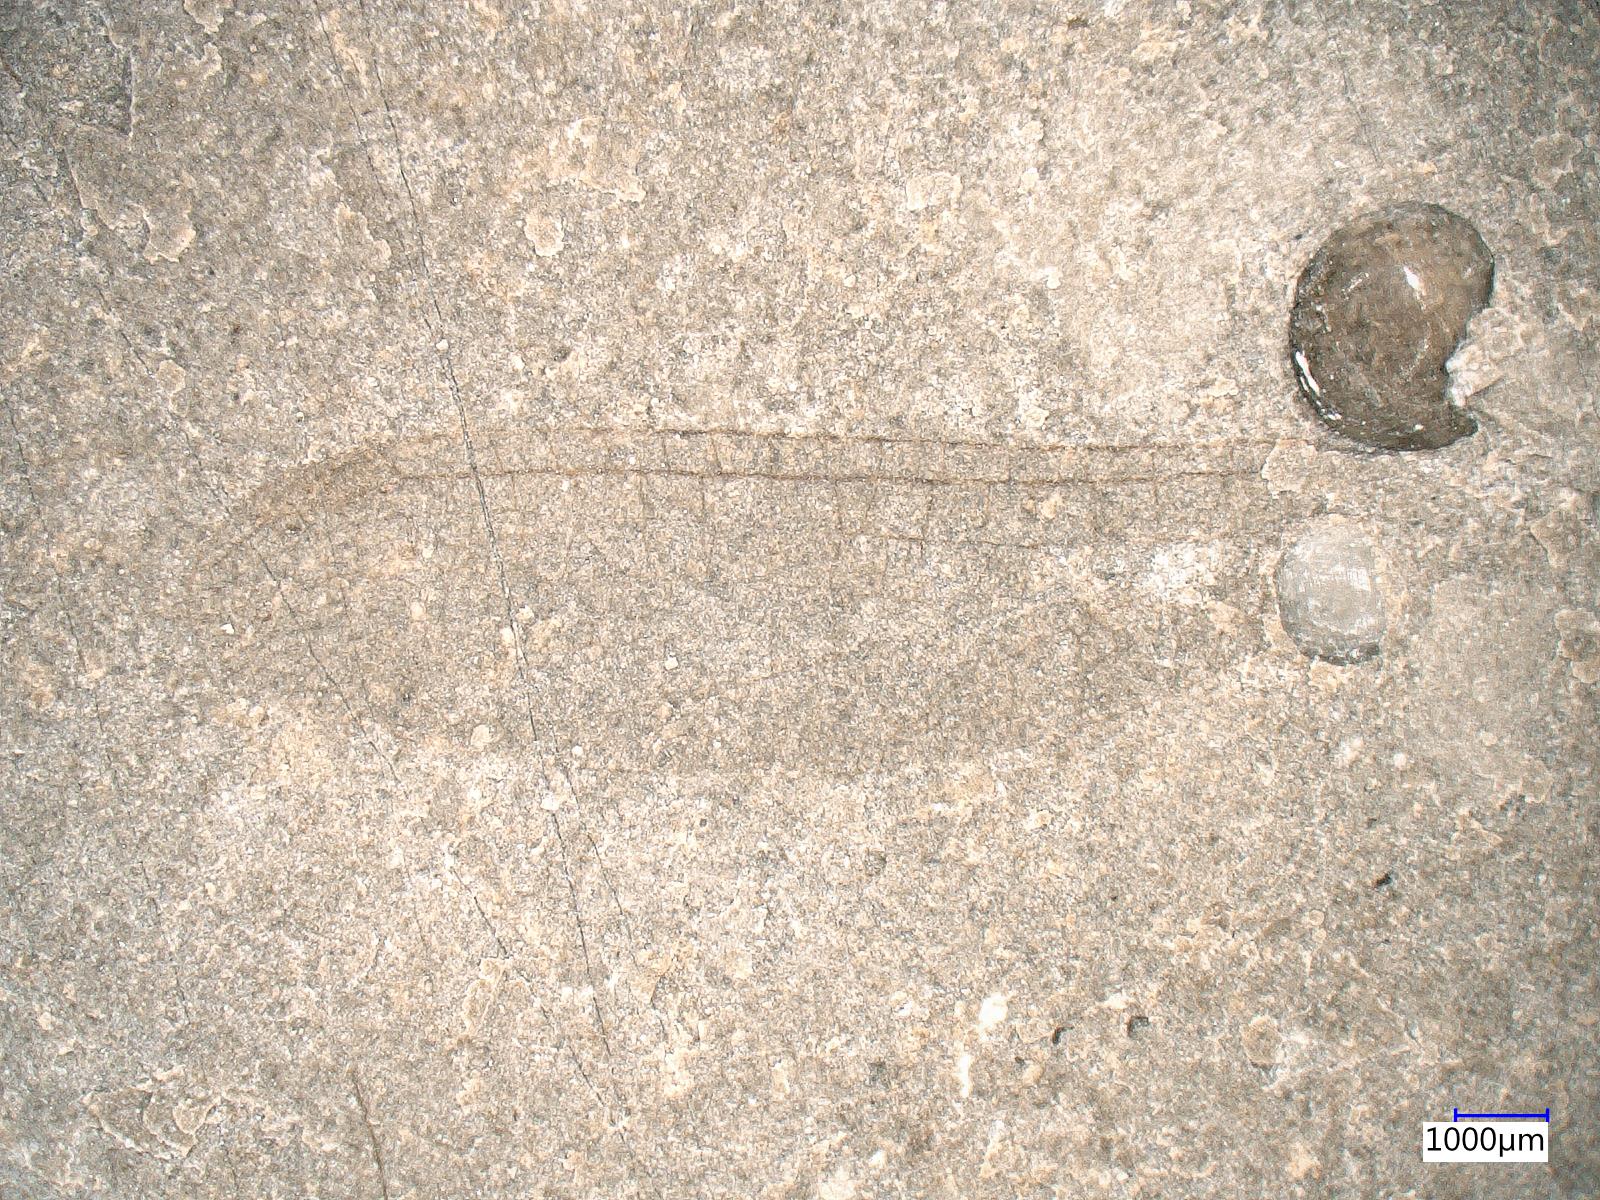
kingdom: Animalia
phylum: Arthropoda
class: Insecta
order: Odonata
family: Protomyrmeleontidae
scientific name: Protomyrmeleontidae
